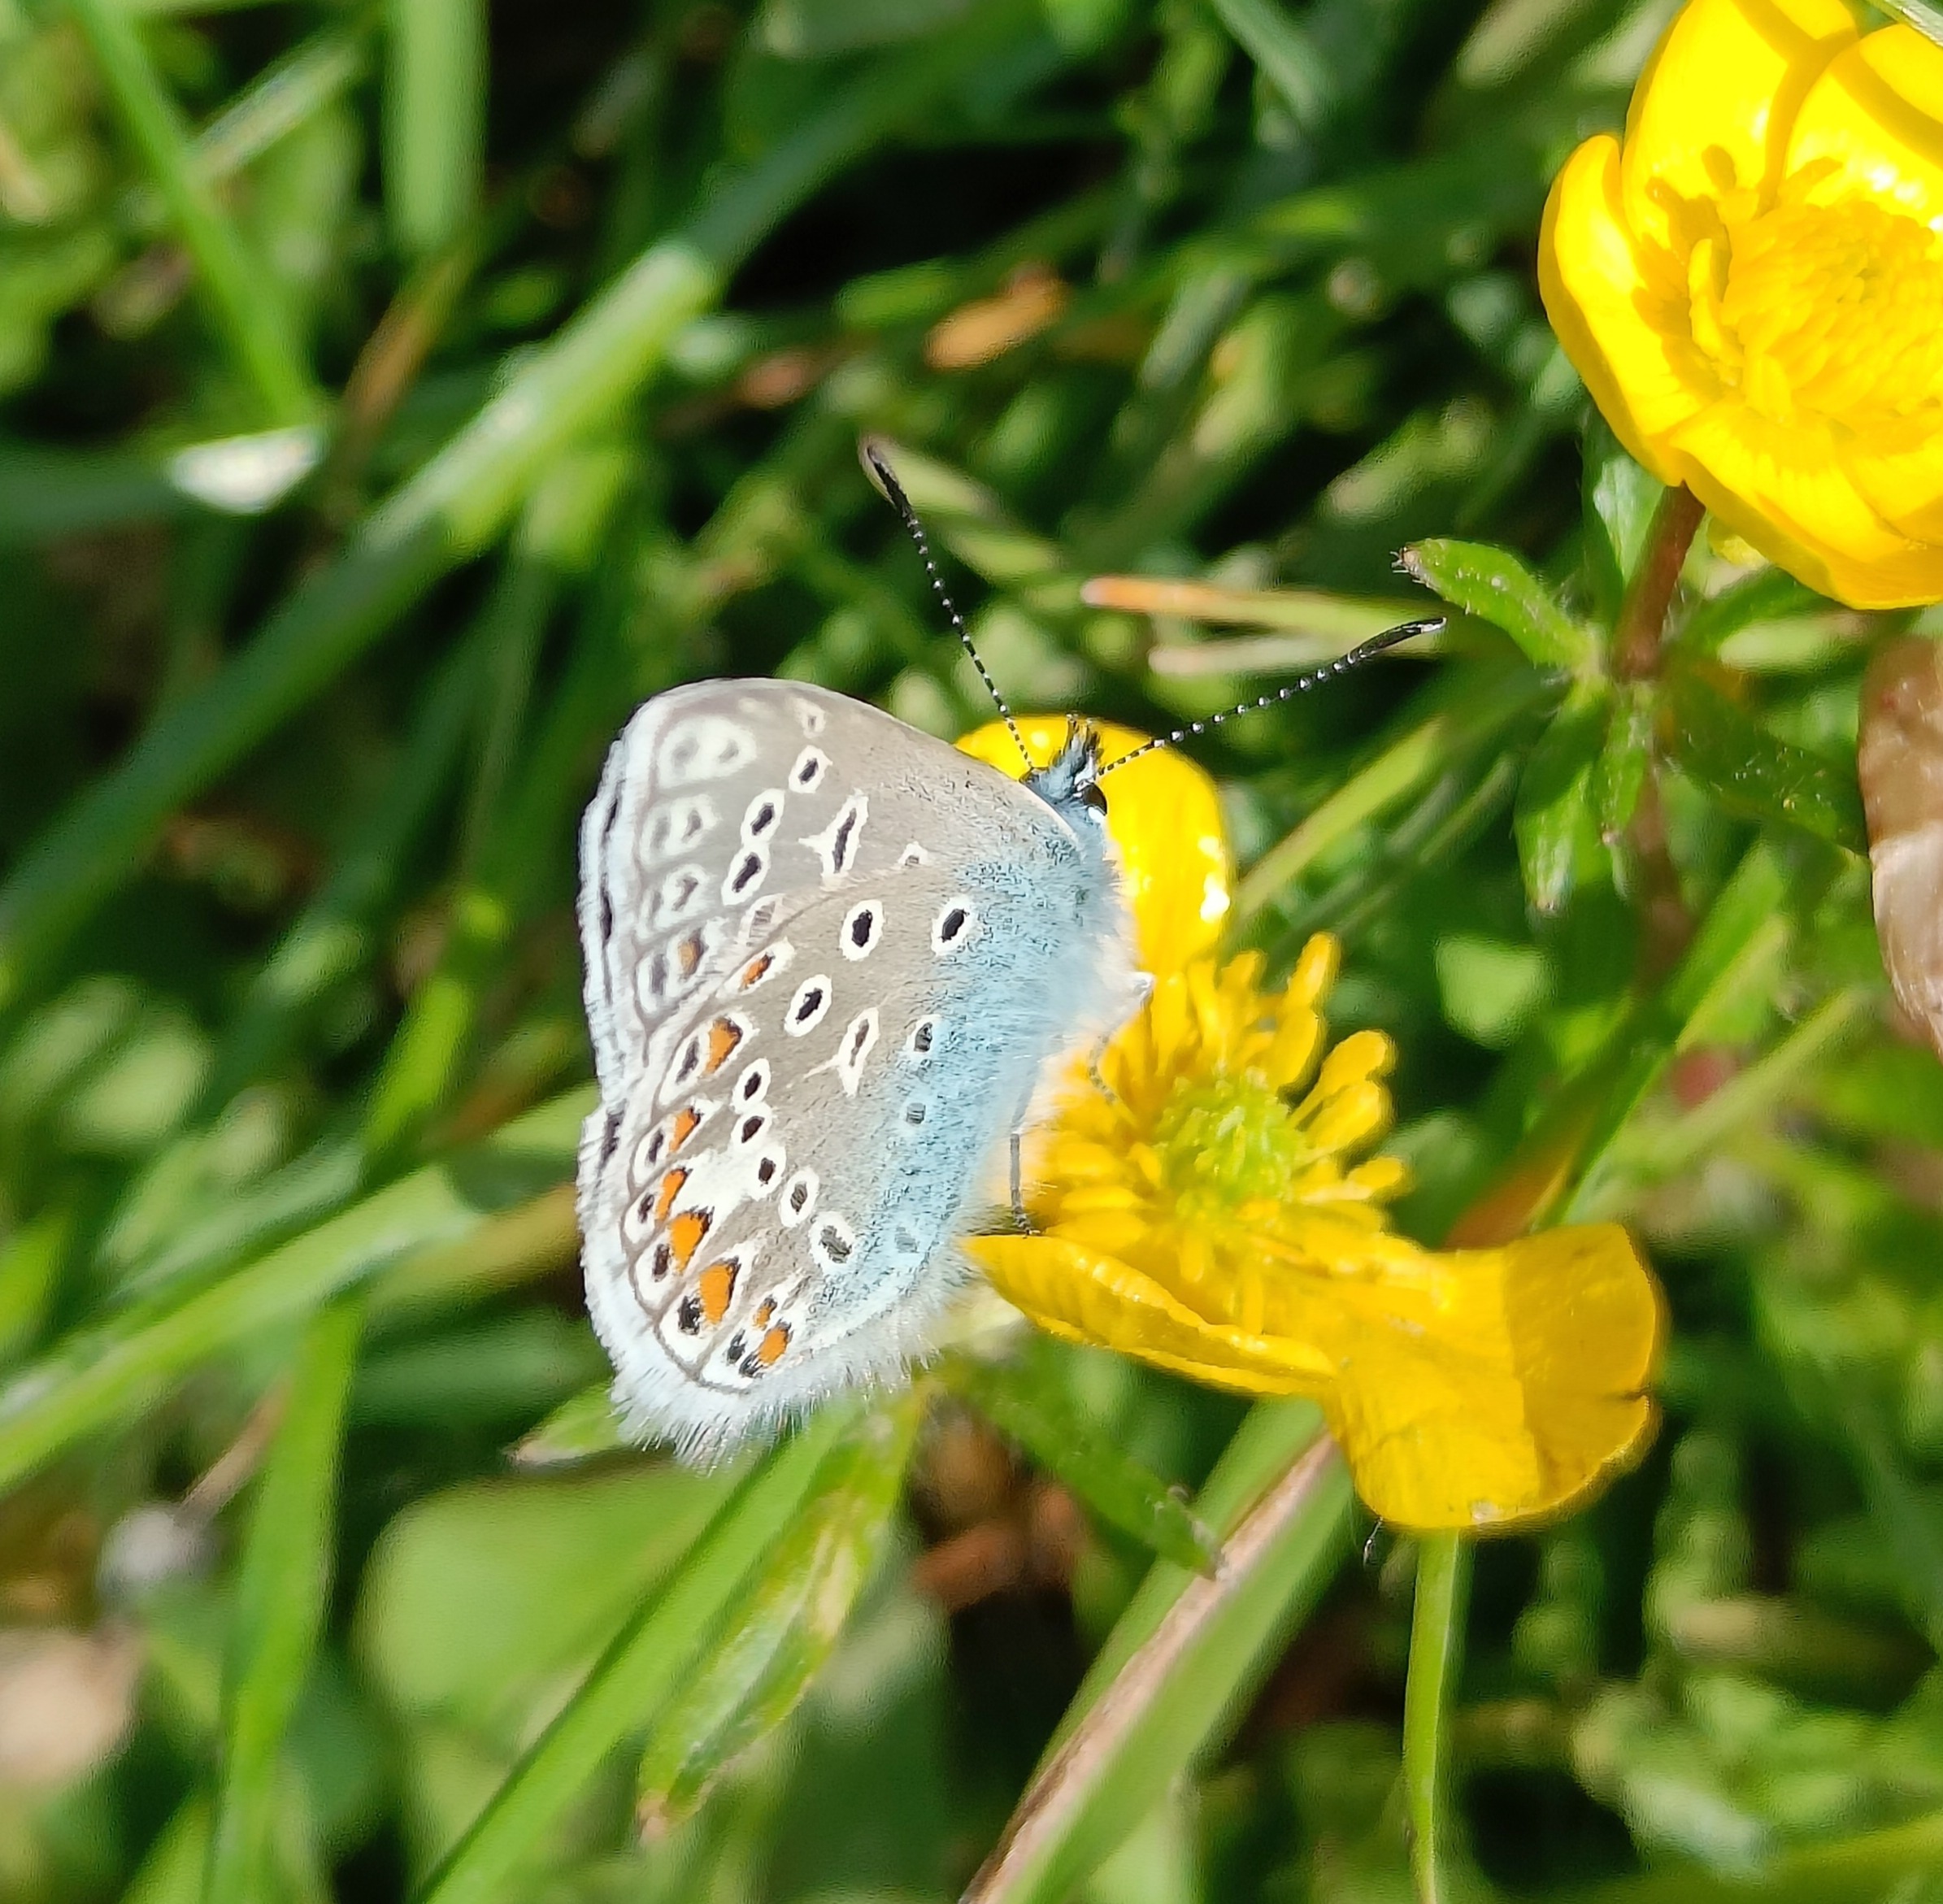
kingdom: Animalia
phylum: Arthropoda
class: Insecta
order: Lepidoptera
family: Lycaenidae
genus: Polyommatus
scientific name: Polyommatus icarus
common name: Almindelig blåfugl
